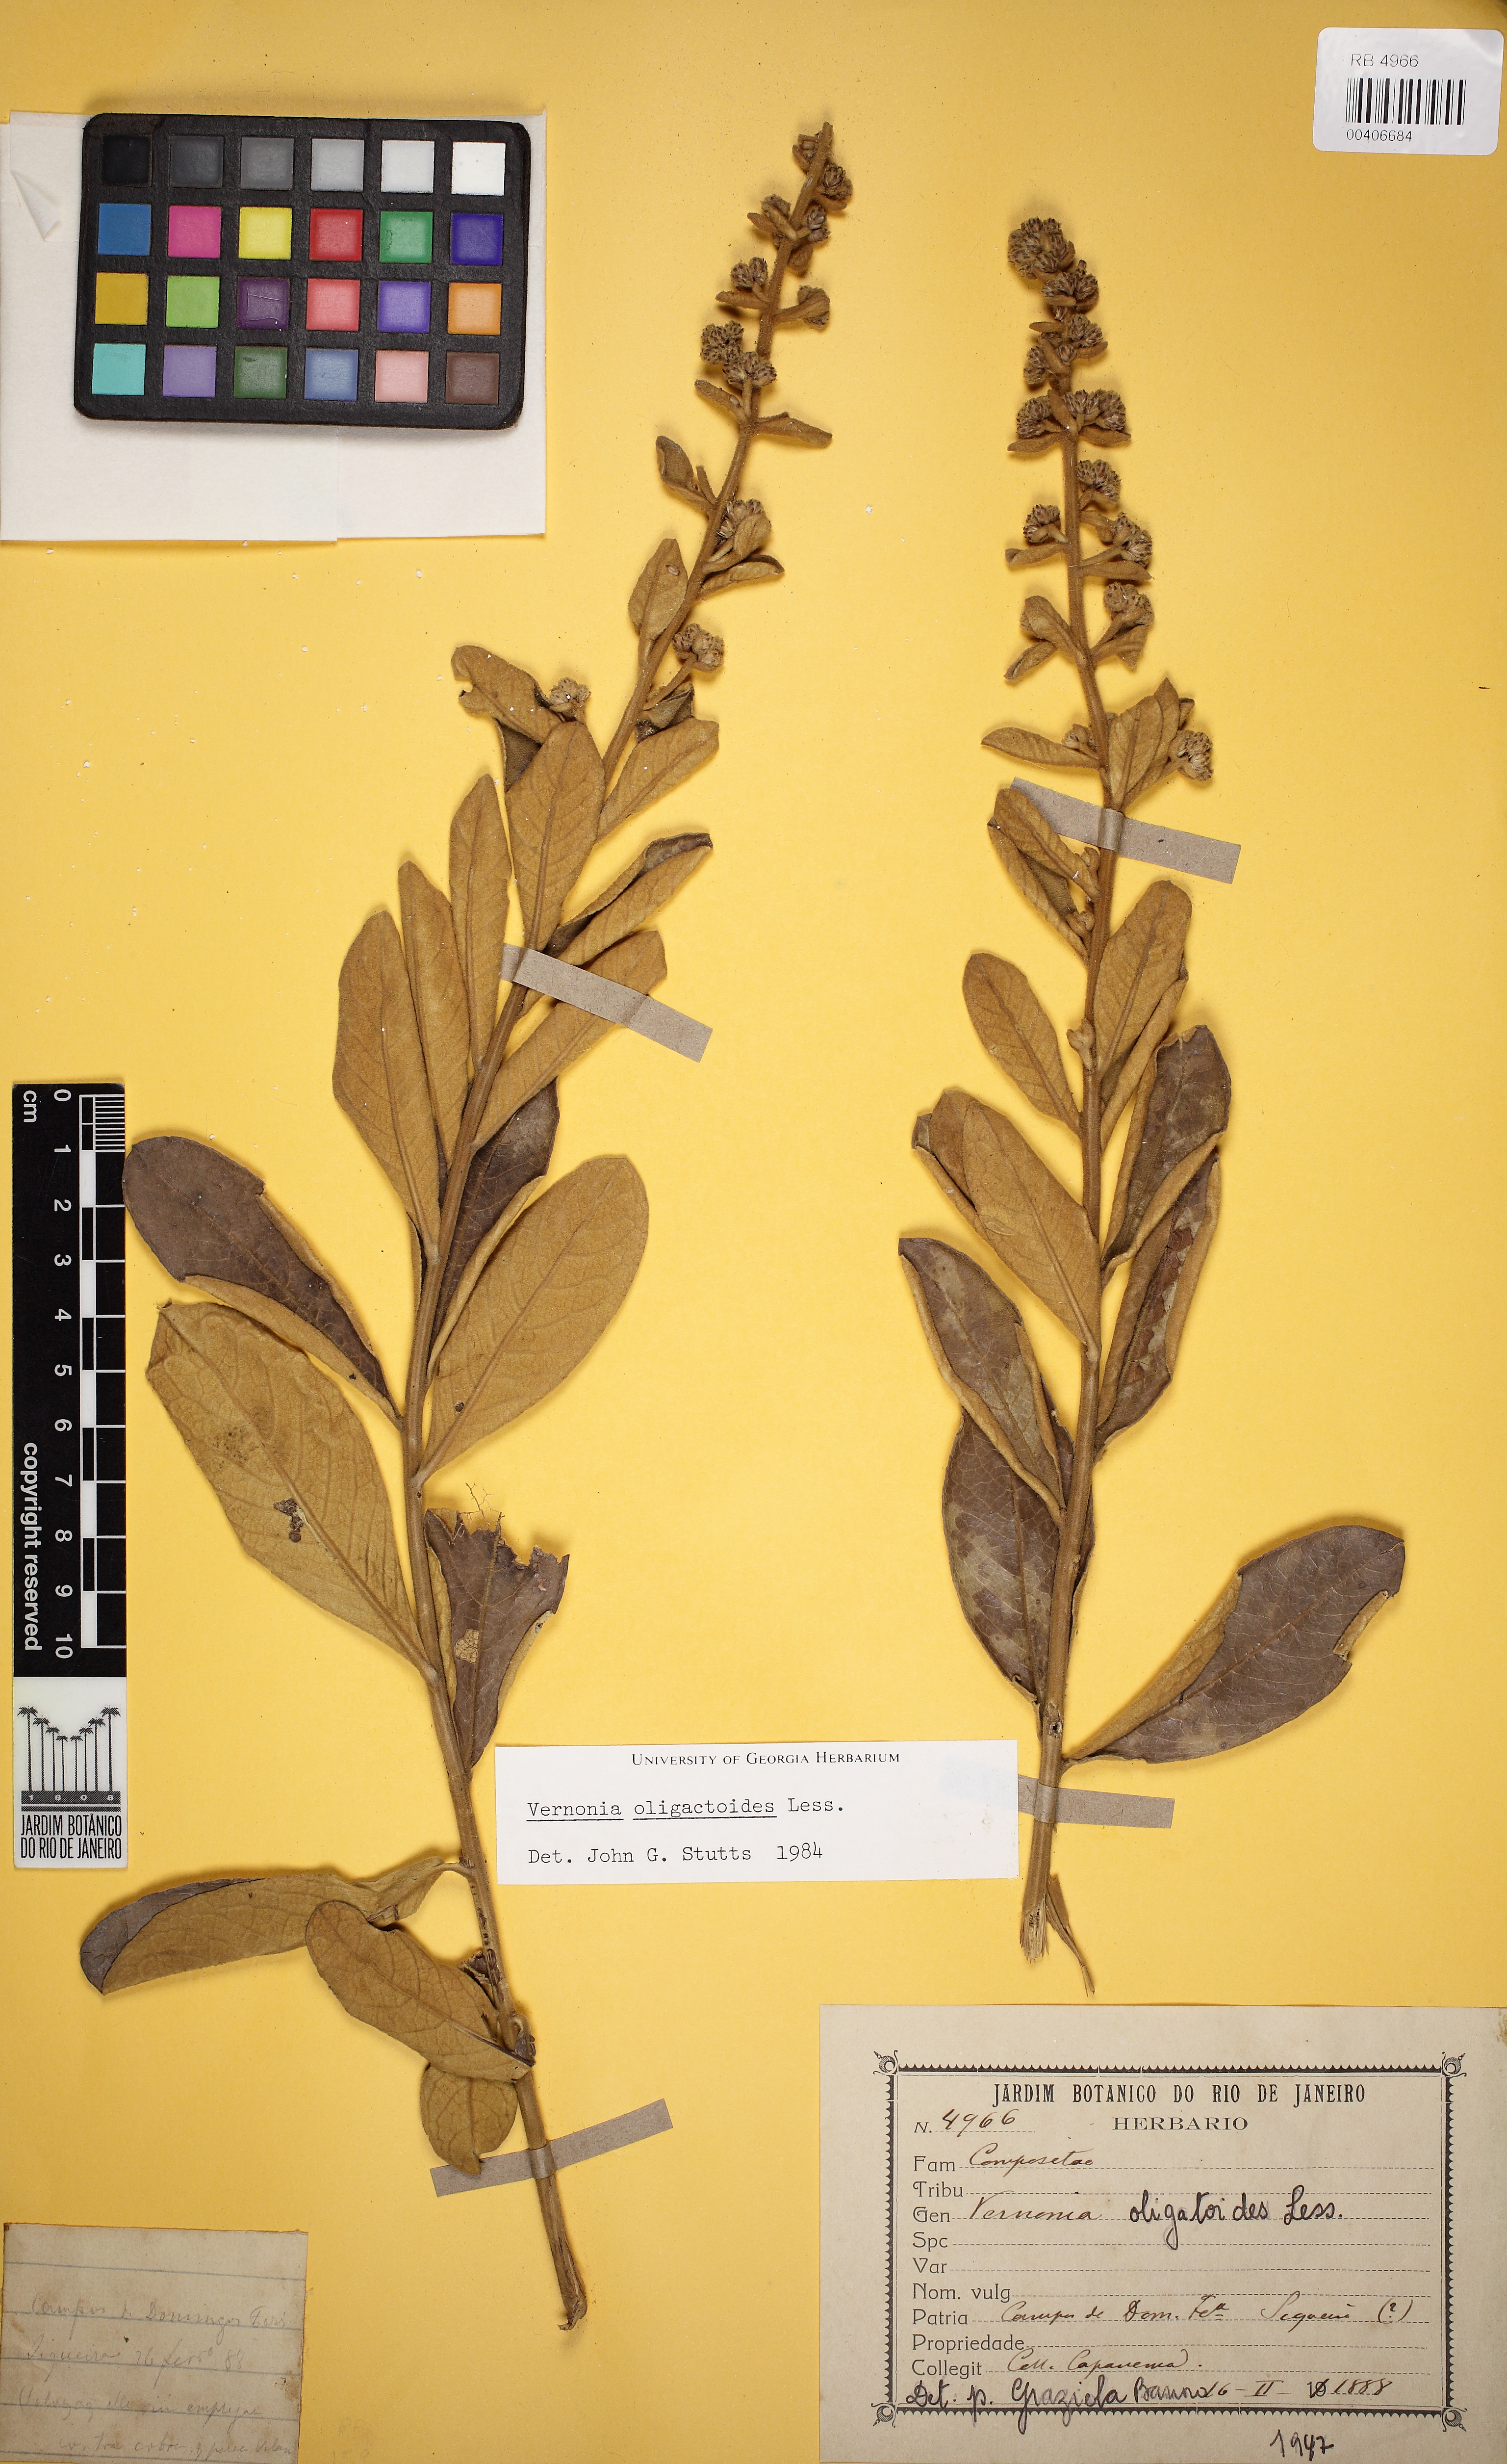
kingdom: Plantae
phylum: Tracheophyta
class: Magnoliopsida
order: Asterales
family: Asteraceae
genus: Vernonanthura
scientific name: Vernonanthura oligactoides
